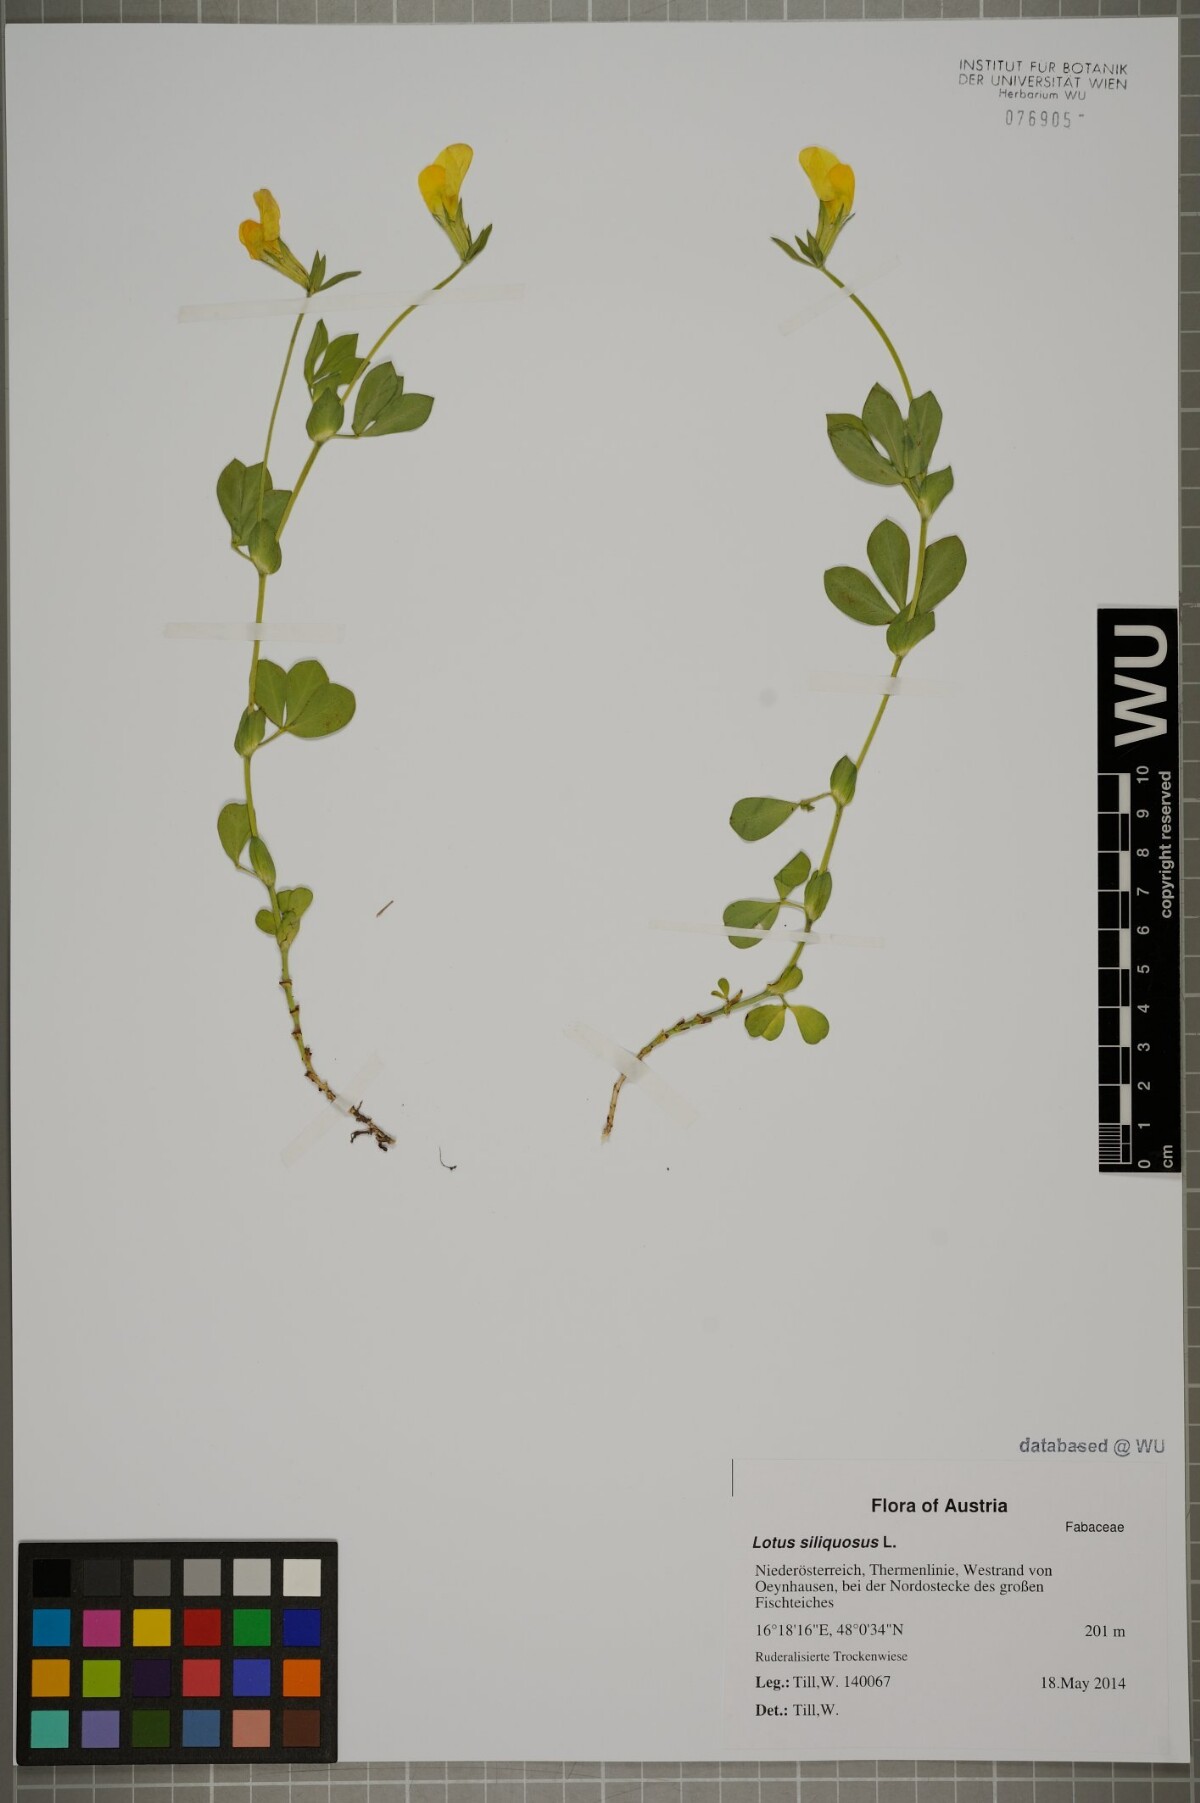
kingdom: Plantae
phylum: Tracheophyta
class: Magnoliopsida
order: Fabales
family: Fabaceae
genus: Lathyrus
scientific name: Lathyrus inconspicuus
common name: Inconspicuous pea
